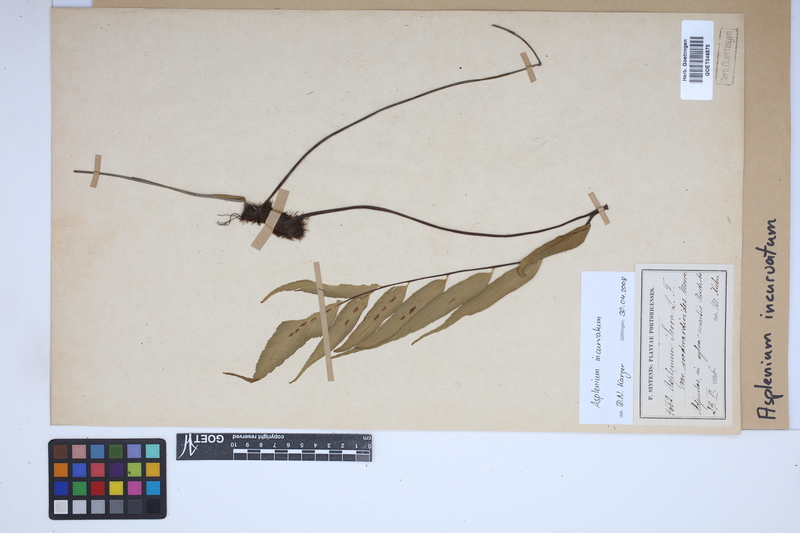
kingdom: Plantae
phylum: Tracheophyta
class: Polypodiopsida
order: Polypodiales
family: Aspleniaceae
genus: Asplenium
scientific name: Asplenium serra
